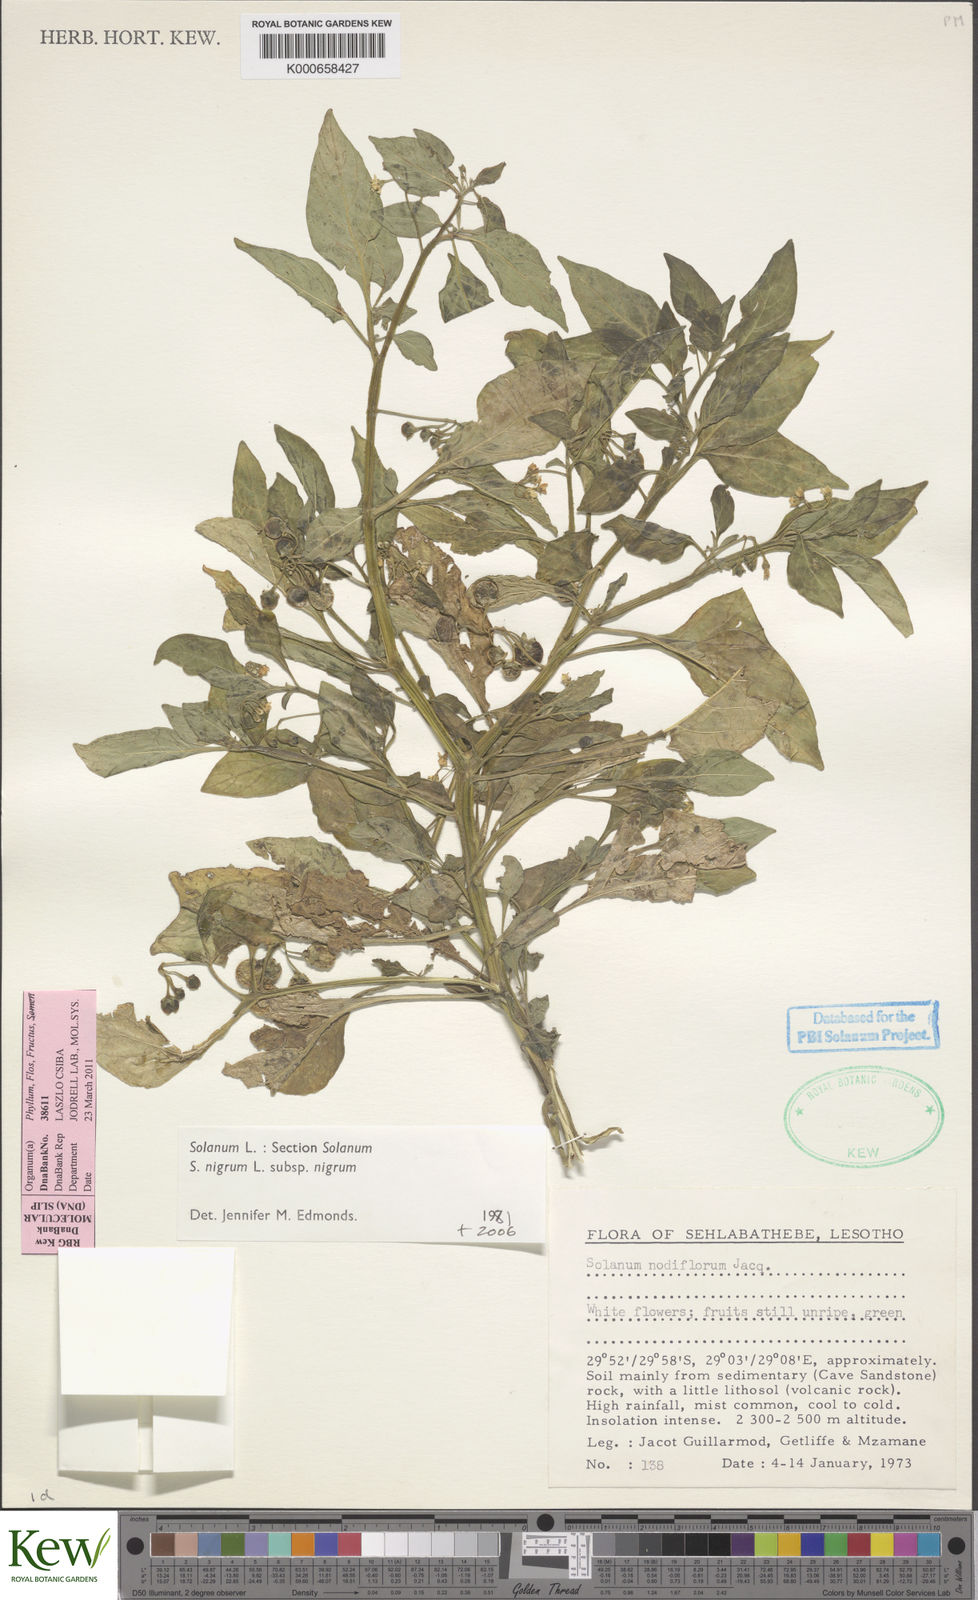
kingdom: Plantae
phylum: Tracheophyta
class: Magnoliopsida
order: Solanales
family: Solanaceae
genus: Solanum
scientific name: Solanum nigrum
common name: Black nightshade
